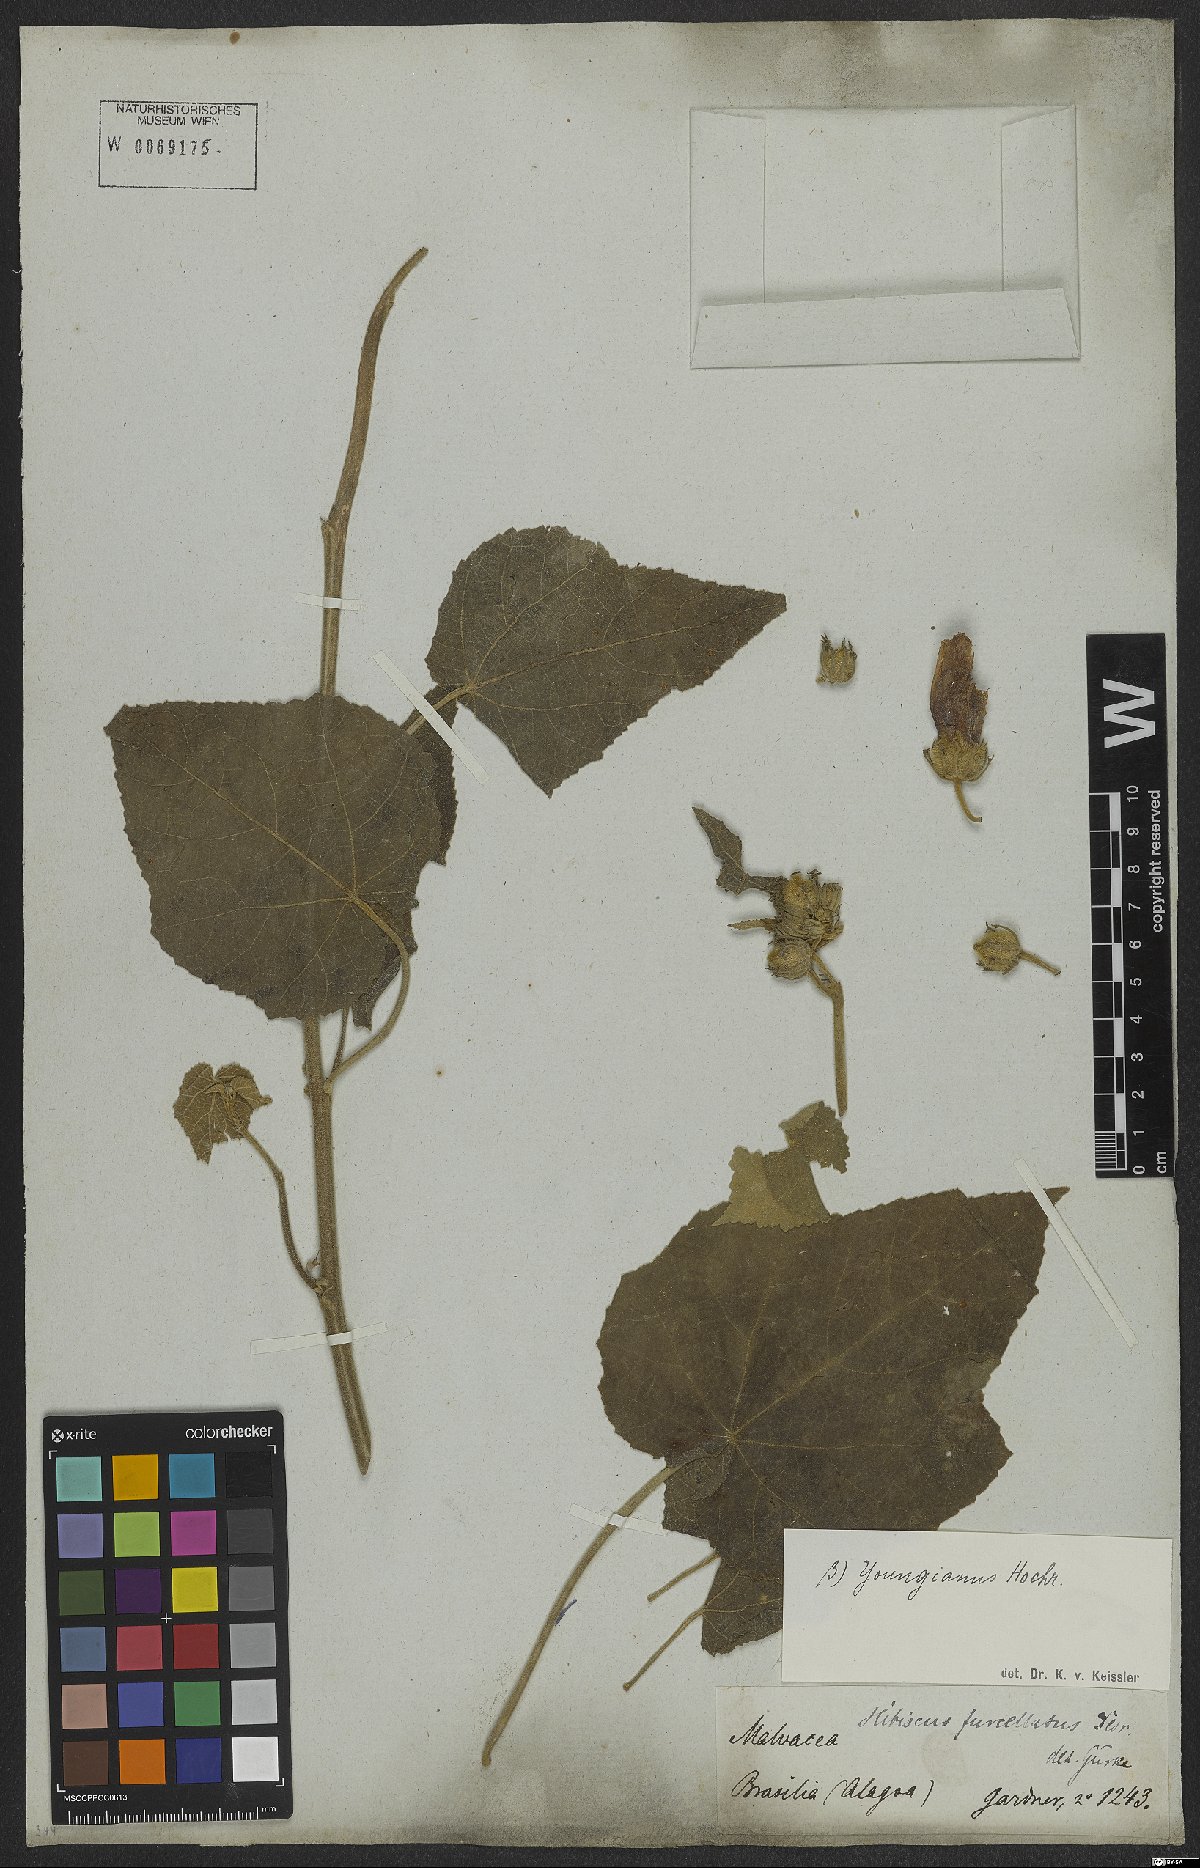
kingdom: Plantae
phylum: Tracheophyta
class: Magnoliopsida
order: Malvales
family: Malvaceae
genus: Hibiscus
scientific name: Hibiscus furcellatus
